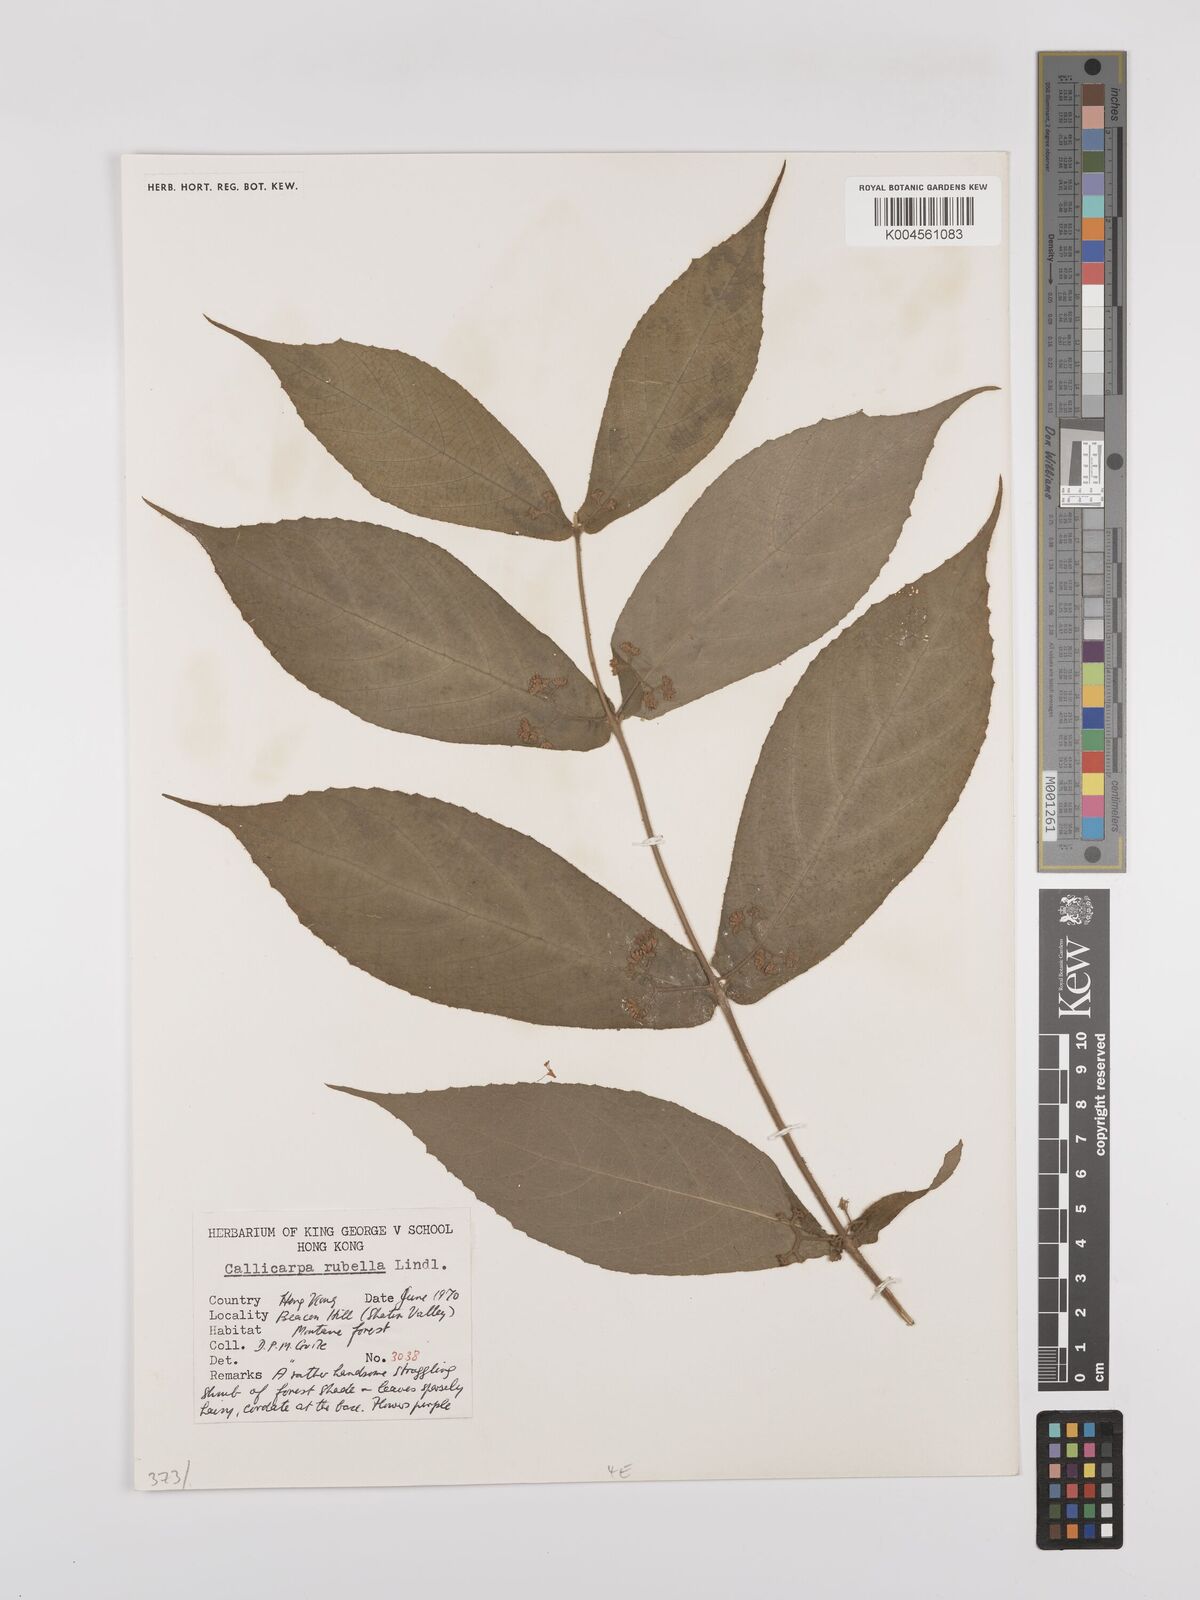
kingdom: Plantae
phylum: Tracheophyta
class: Magnoliopsida
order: Lamiales
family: Lamiaceae
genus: Callicarpa
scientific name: Callicarpa rubella
